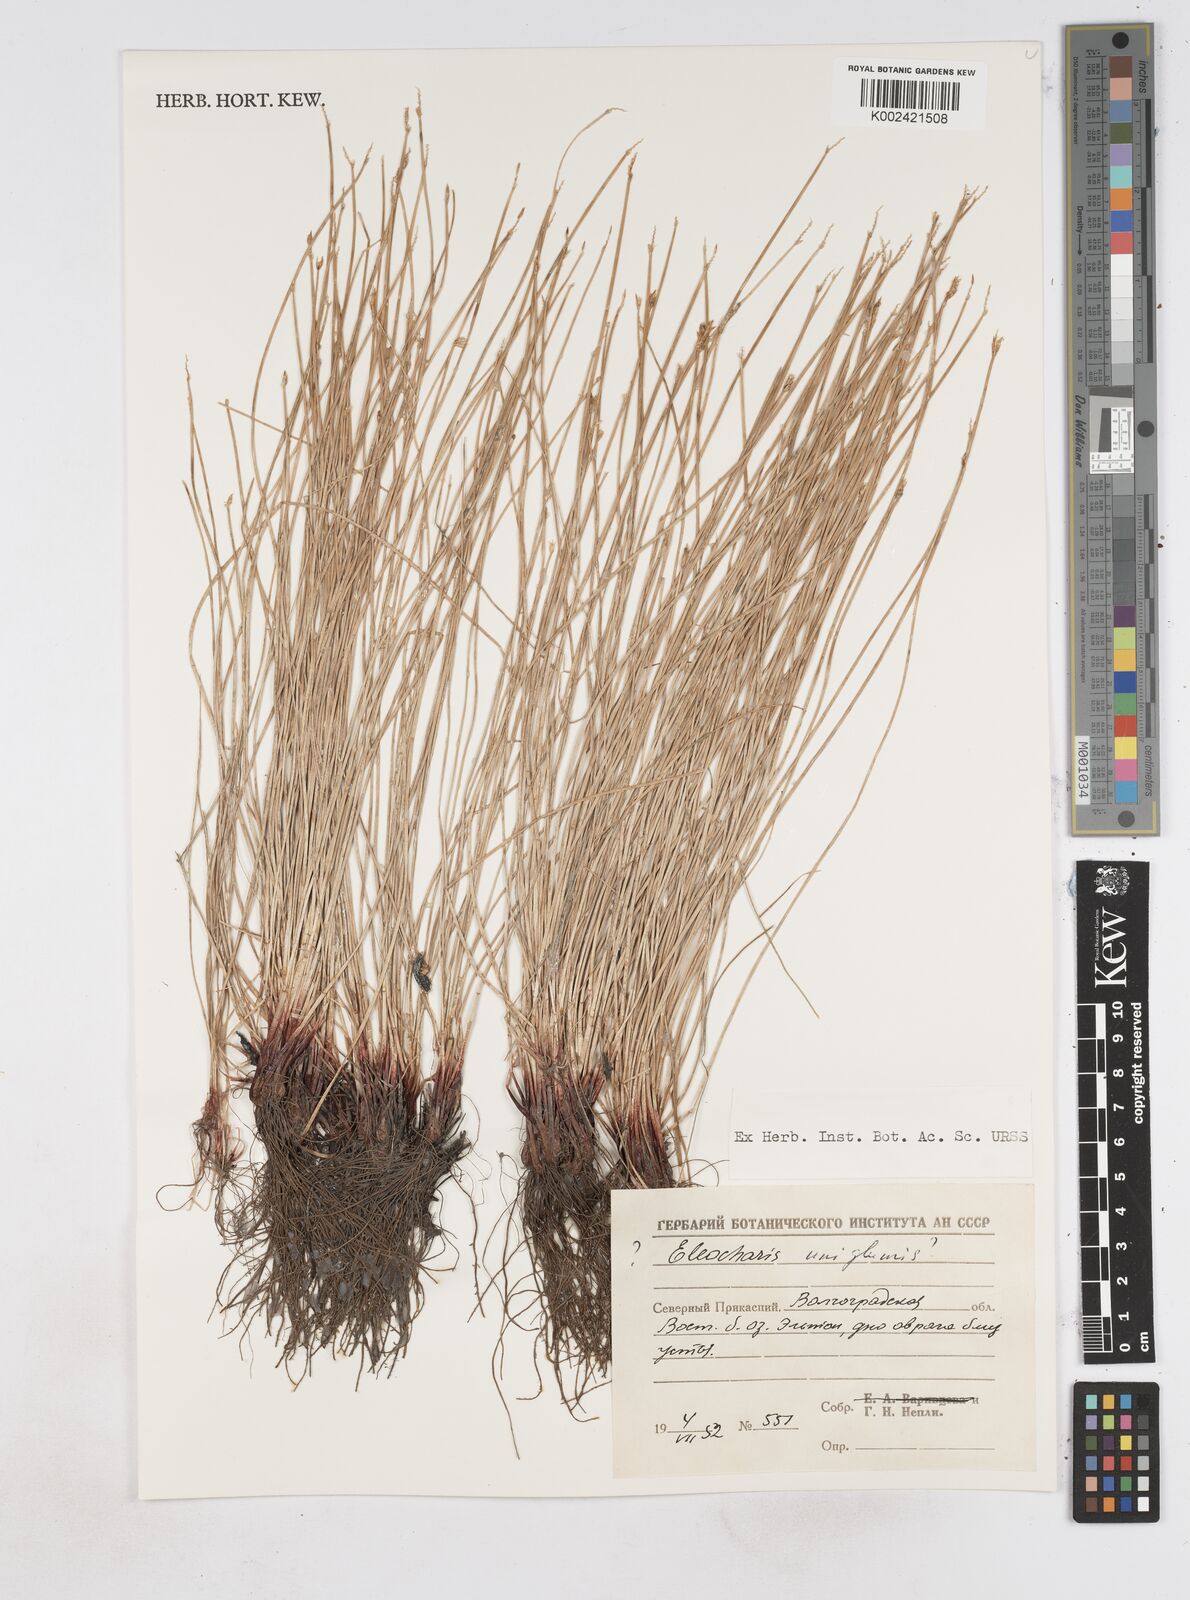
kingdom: Plantae
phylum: Tracheophyta
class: Liliopsida
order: Poales
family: Cyperaceae
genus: Eleocharis
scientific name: Eleocharis uniglumis
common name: Slender spike-rush
